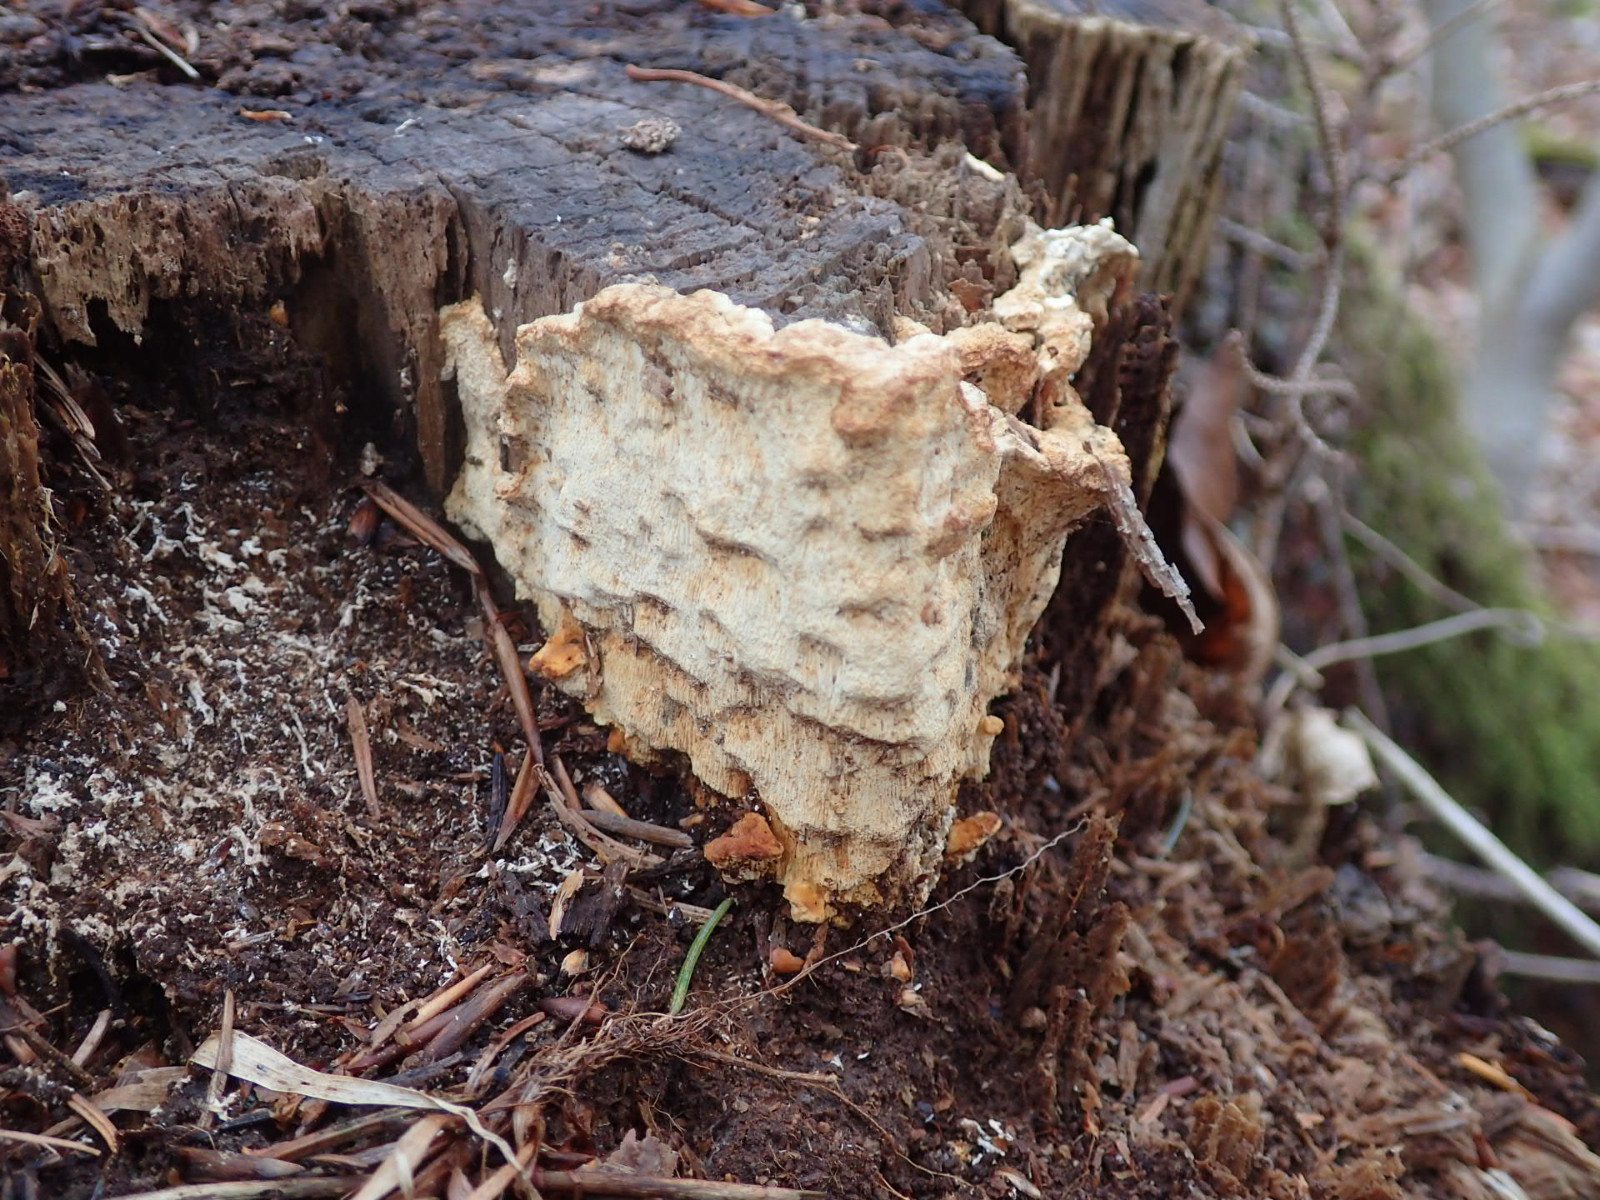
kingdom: Fungi
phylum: Basidiomycota
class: Agaricomycetes
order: Polyporales
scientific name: Polyporales
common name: poresvampordenen
